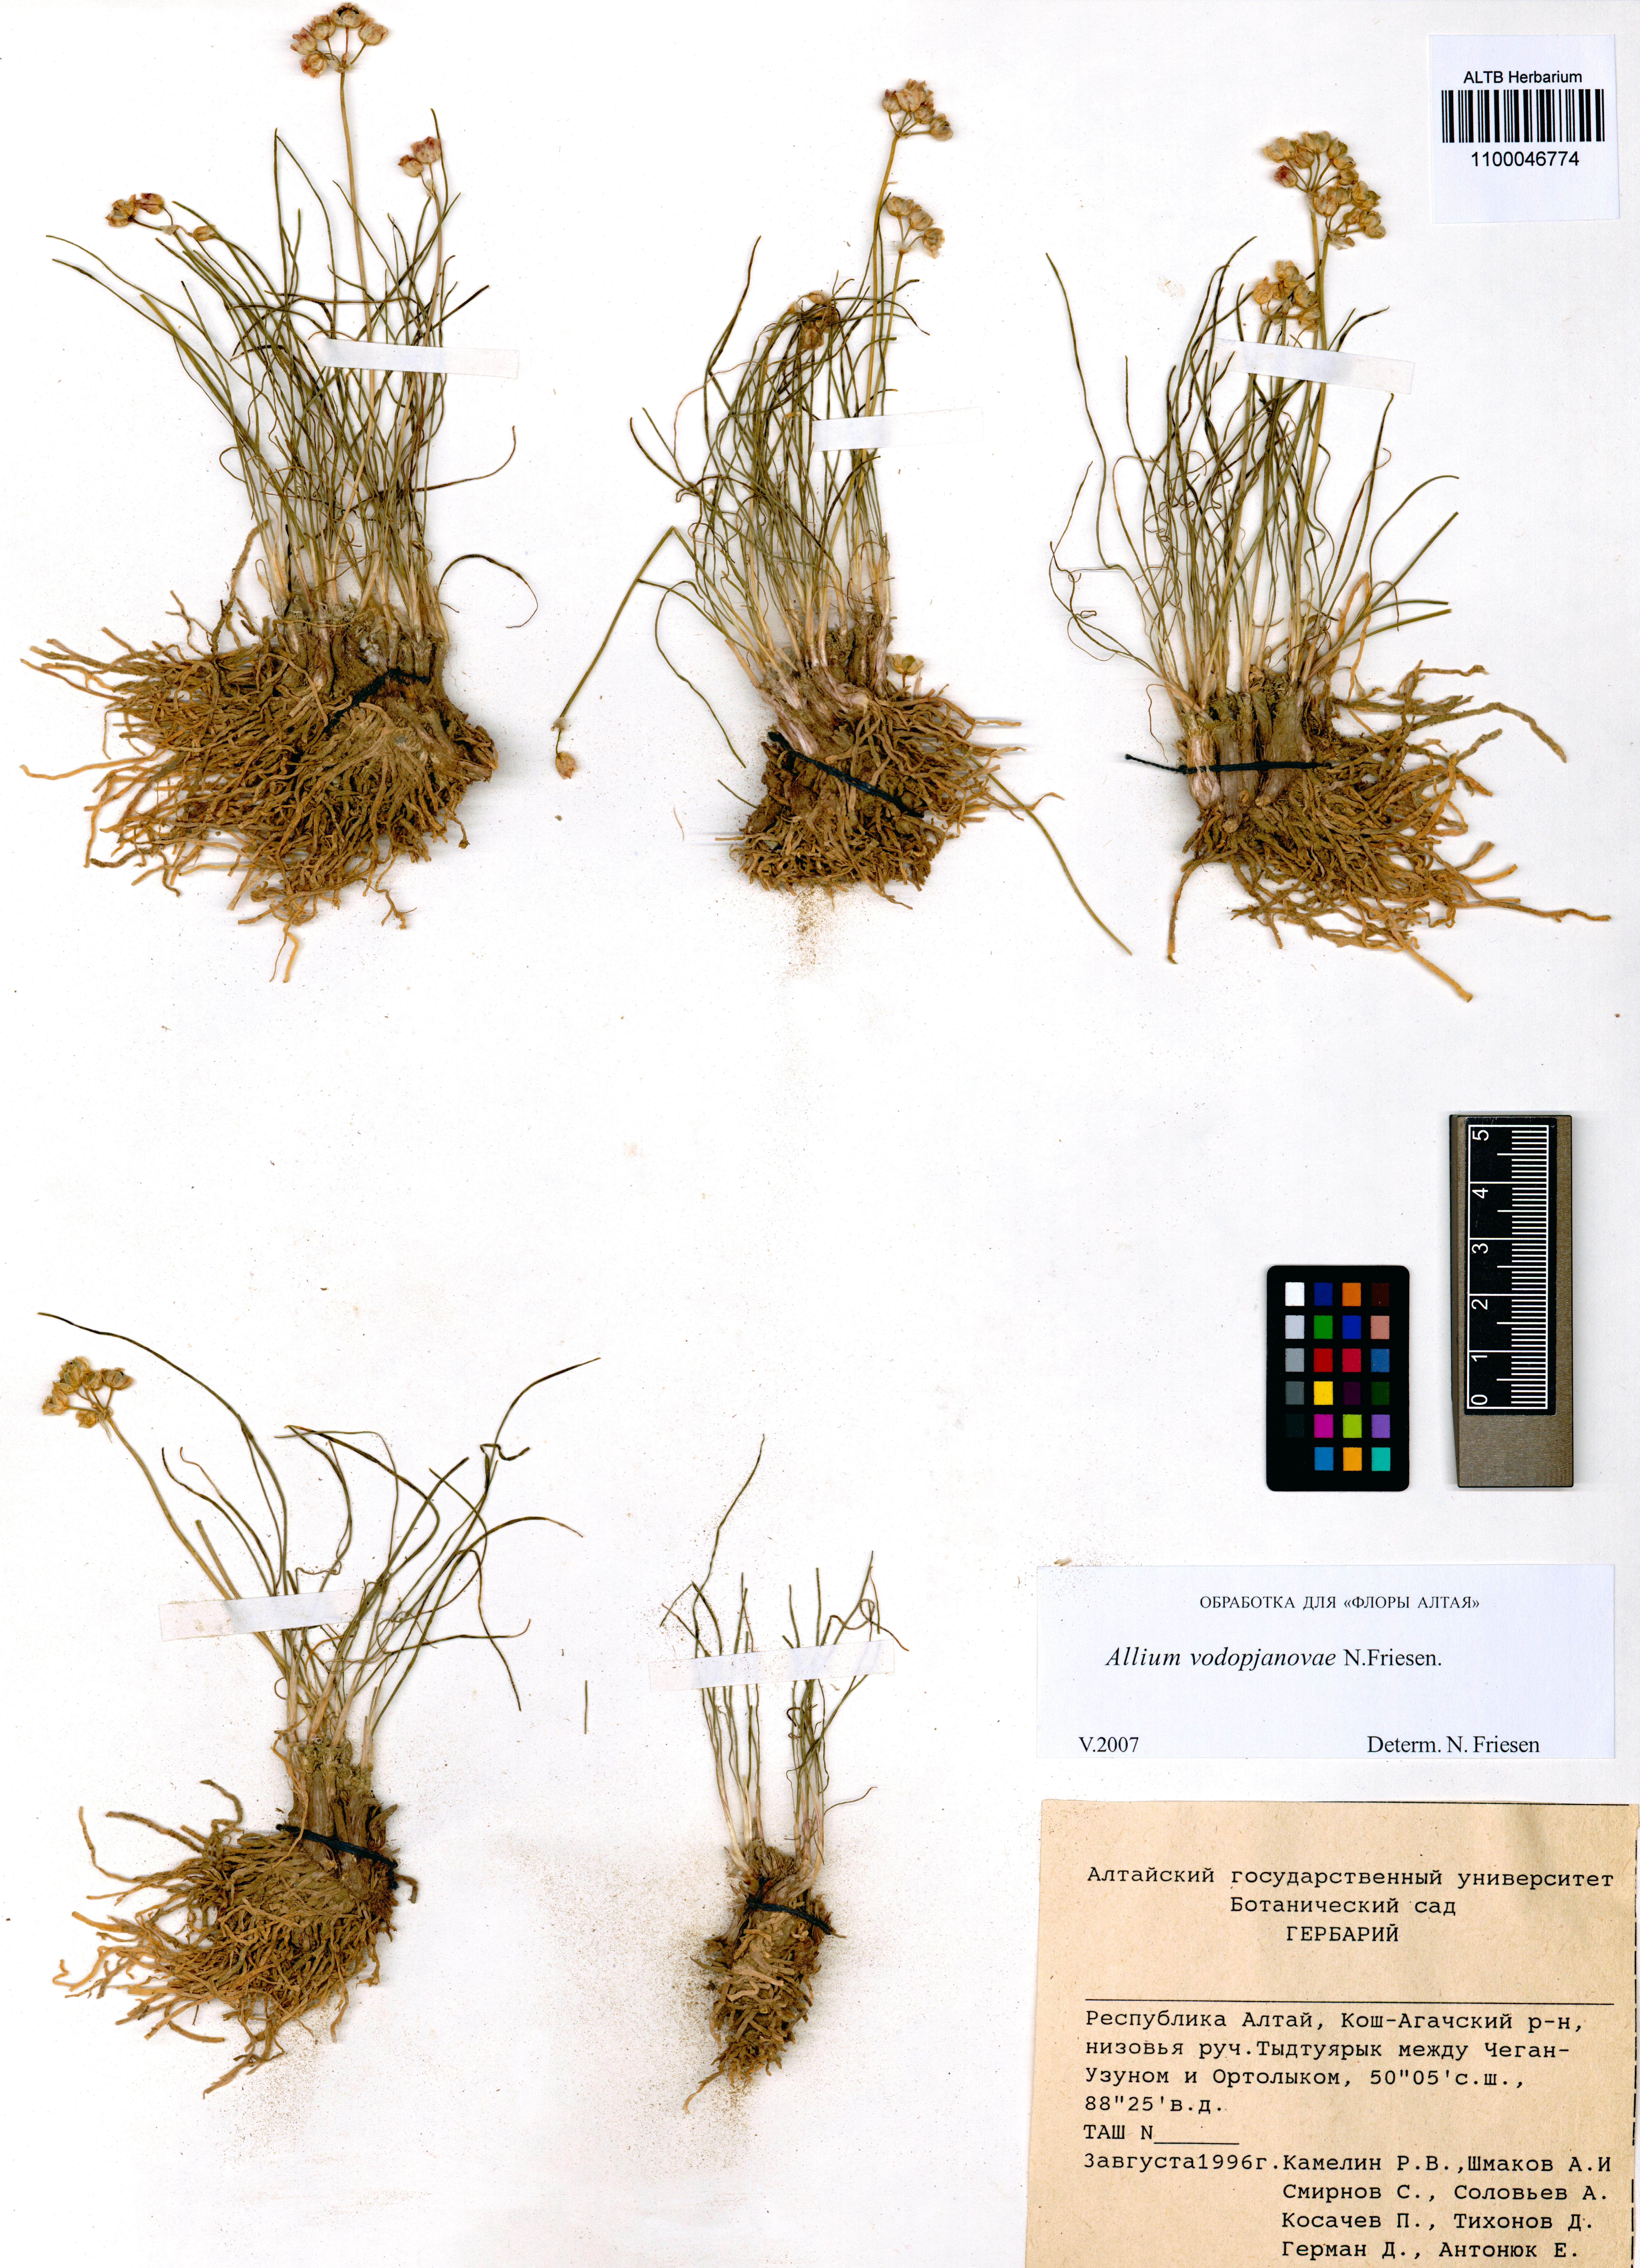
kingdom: Plantae
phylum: Tracheophyta
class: Liliopsida
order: Asparagales
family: Amaryllidaceae
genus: Allium
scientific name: Allium vodopjanovae
